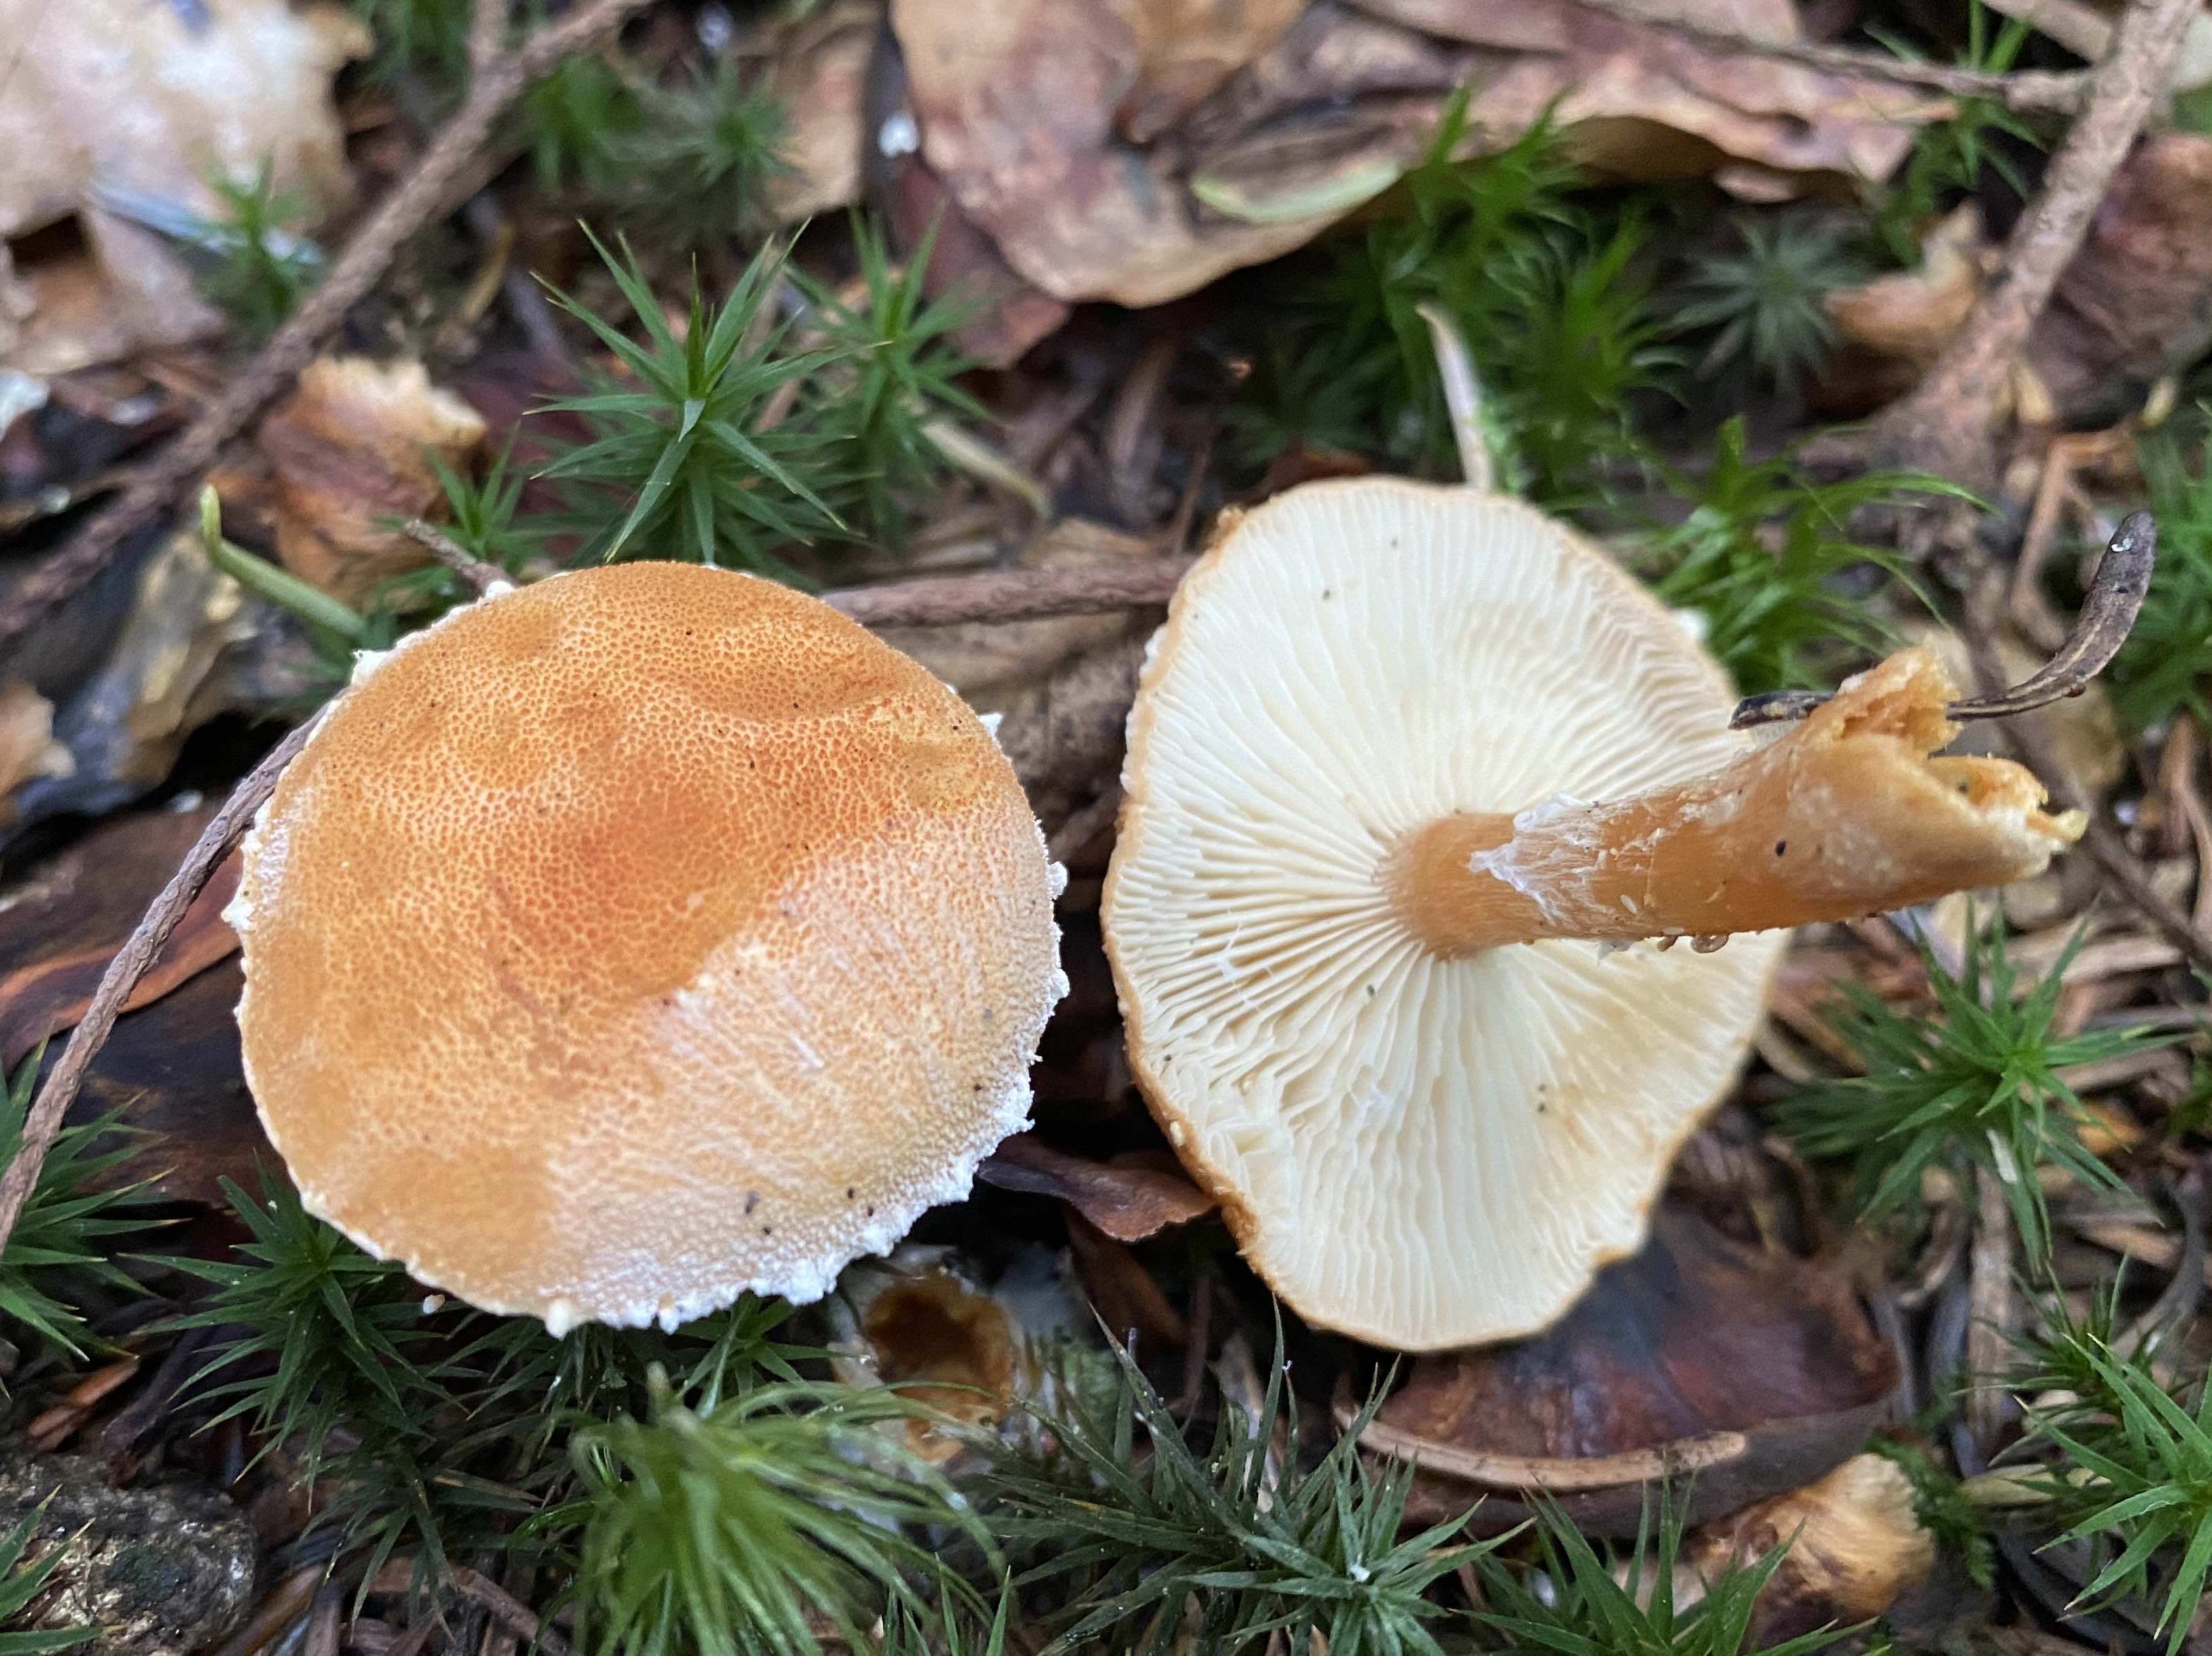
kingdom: Fungi
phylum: Basidiomycota
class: Agaricomycetes
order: Agaricales
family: Tricholomataceae
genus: Cystoderma
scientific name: Cystoderma amianthinum
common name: okkergul grynhat
